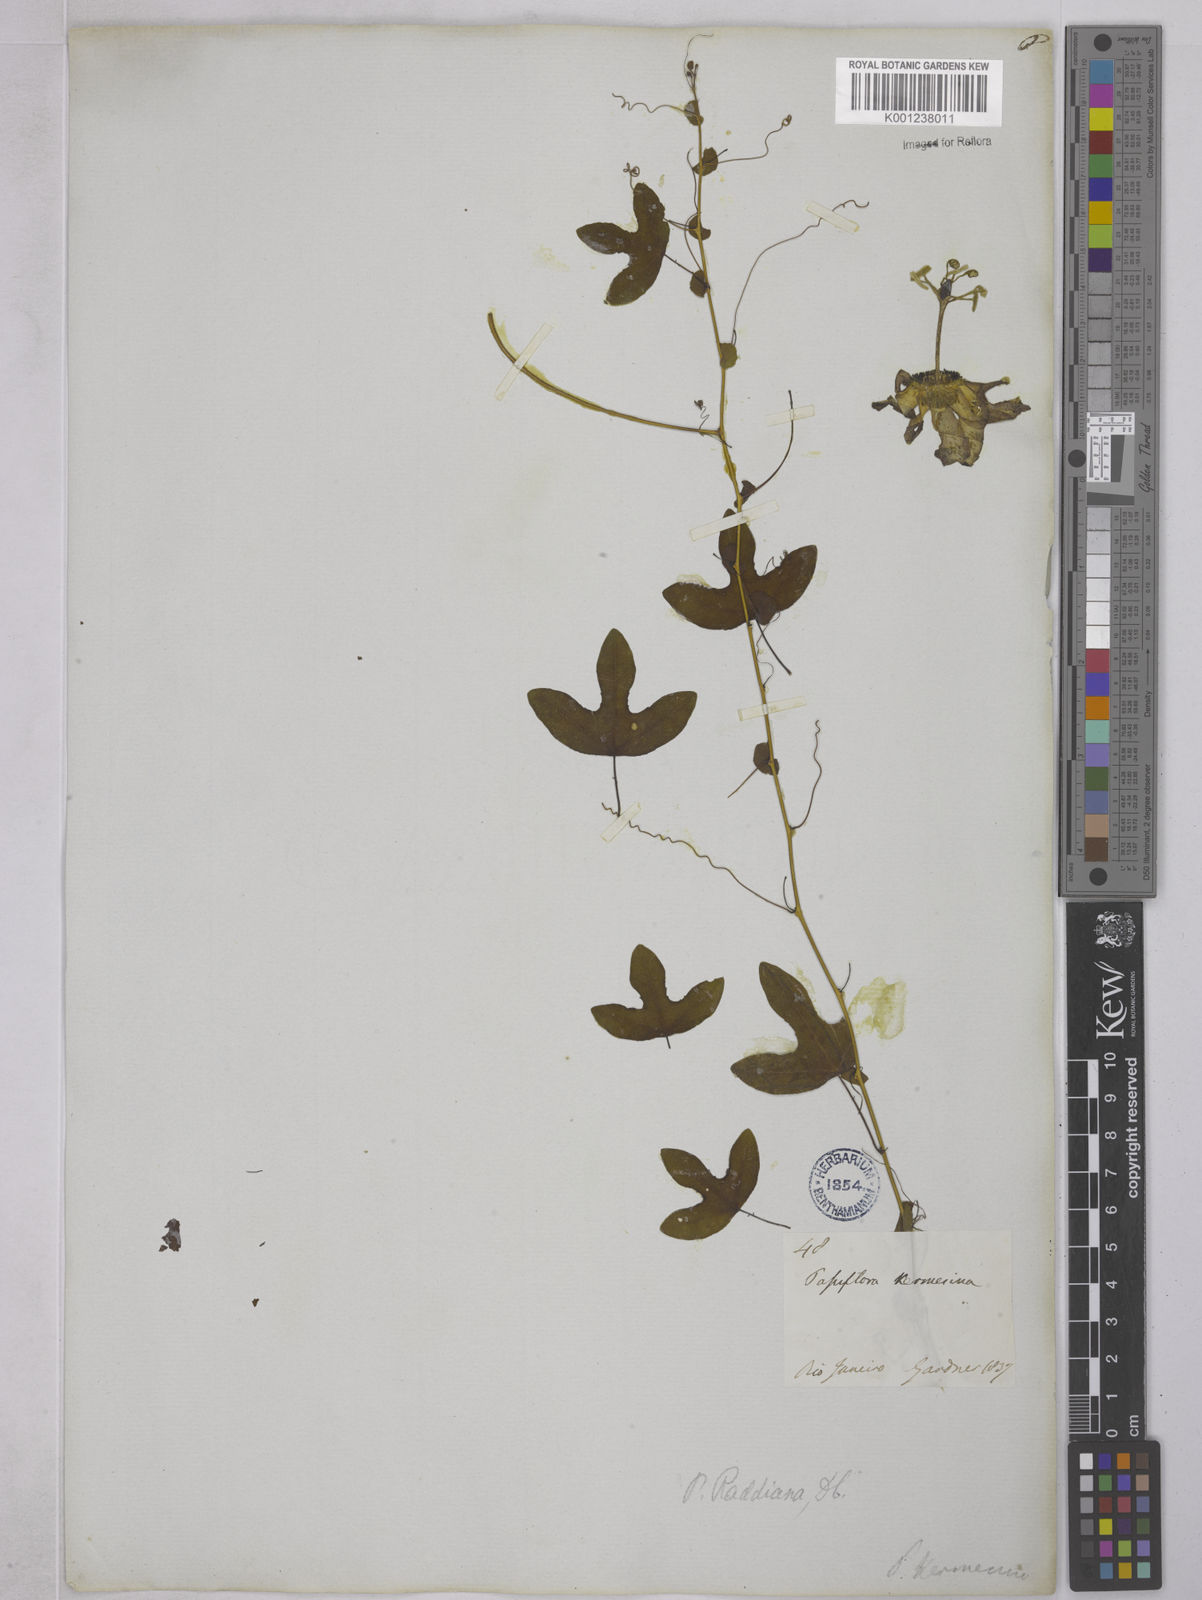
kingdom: Plantae
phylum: Tracheophyta
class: Magnoliopsida
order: Malpighiales
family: Passifloraceae
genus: Passiflora
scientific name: Passiflora kermesina
